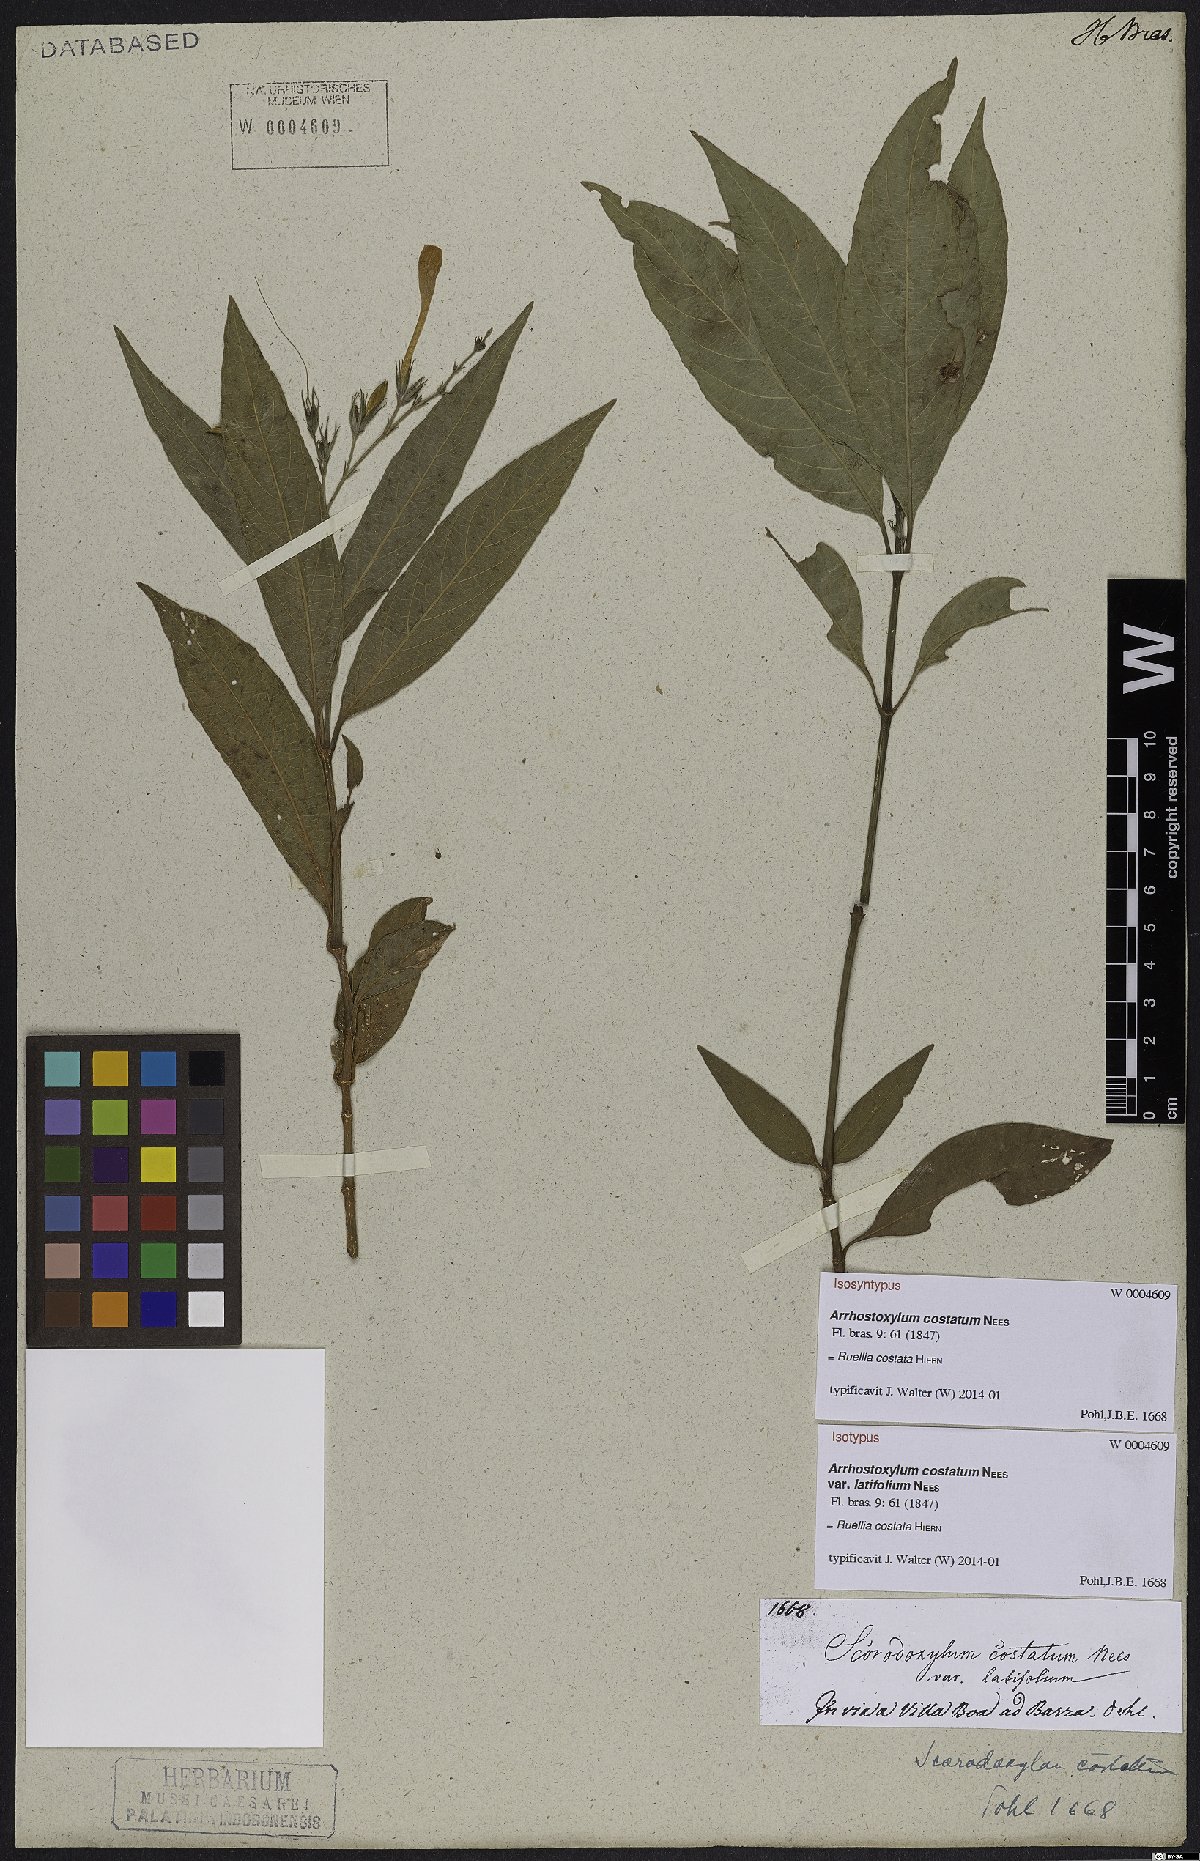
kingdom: Plantae
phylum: Tracheophyta
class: Magnoliopsida
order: Lamiales
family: Acanthaceae
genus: Ruellia
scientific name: Ruellia costata
